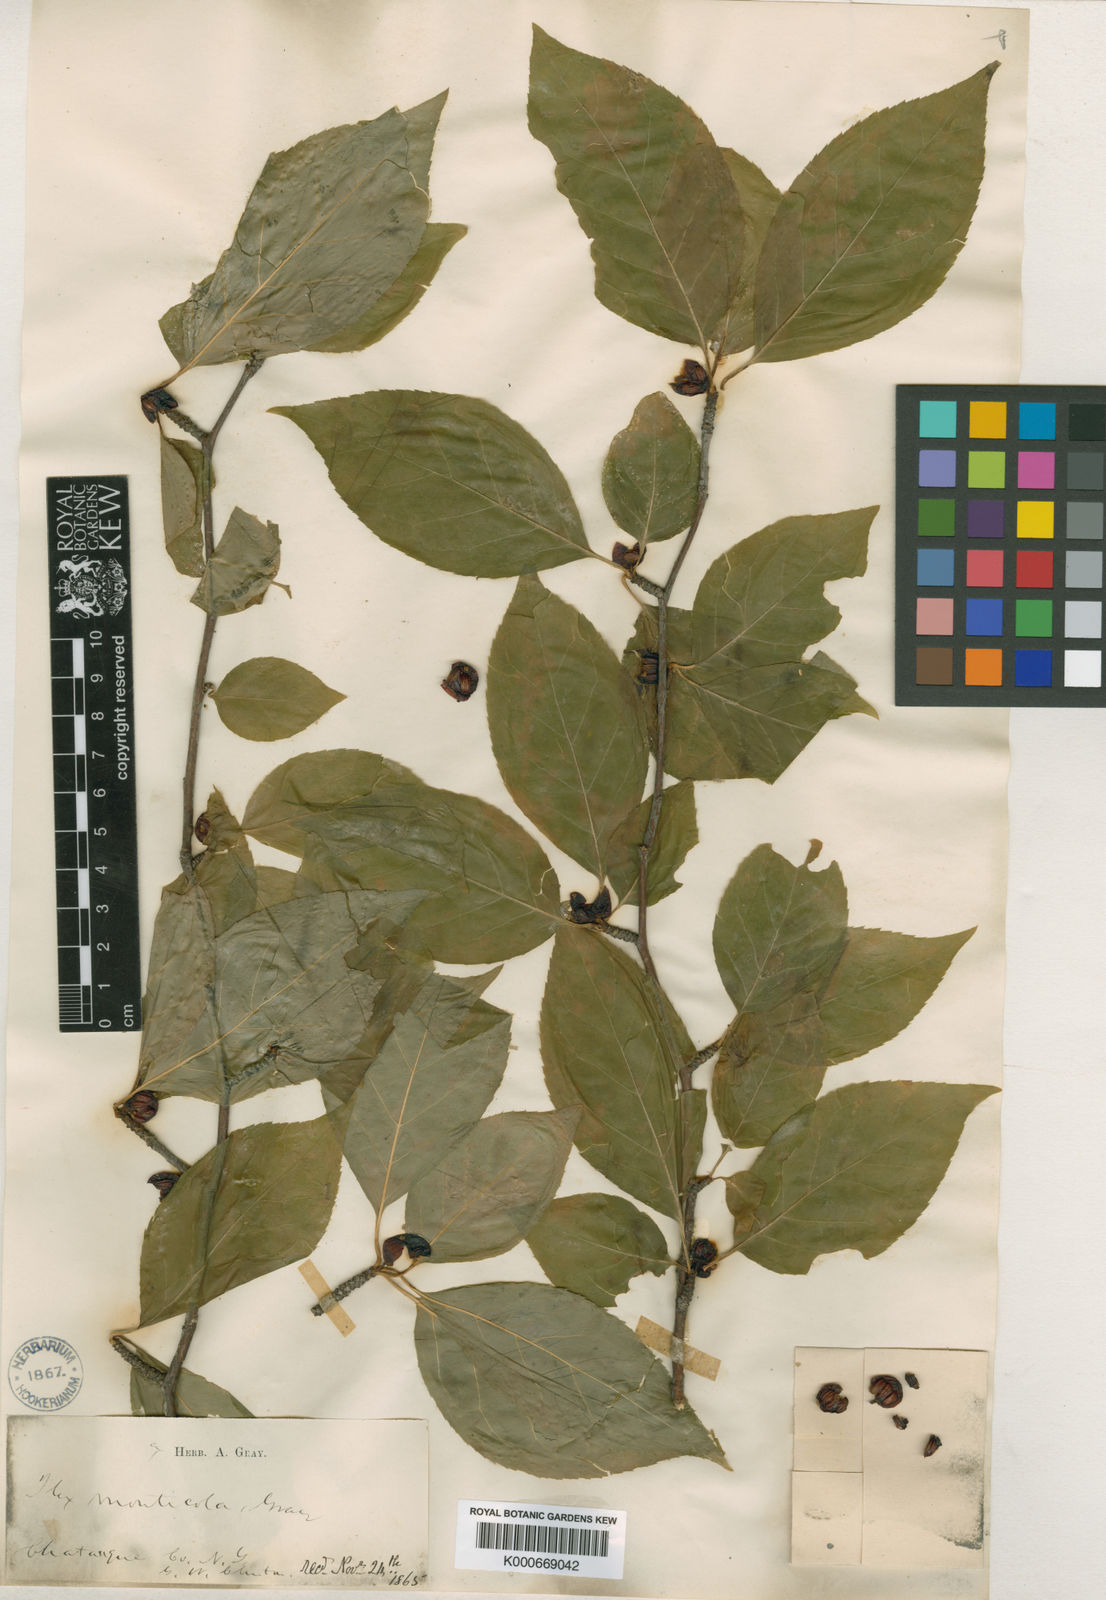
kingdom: Plantae
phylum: Tracheophyta
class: Magnoliopsida
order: Aquifoliales
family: Aquifoliaceae
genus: Ilex
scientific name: Ilex
